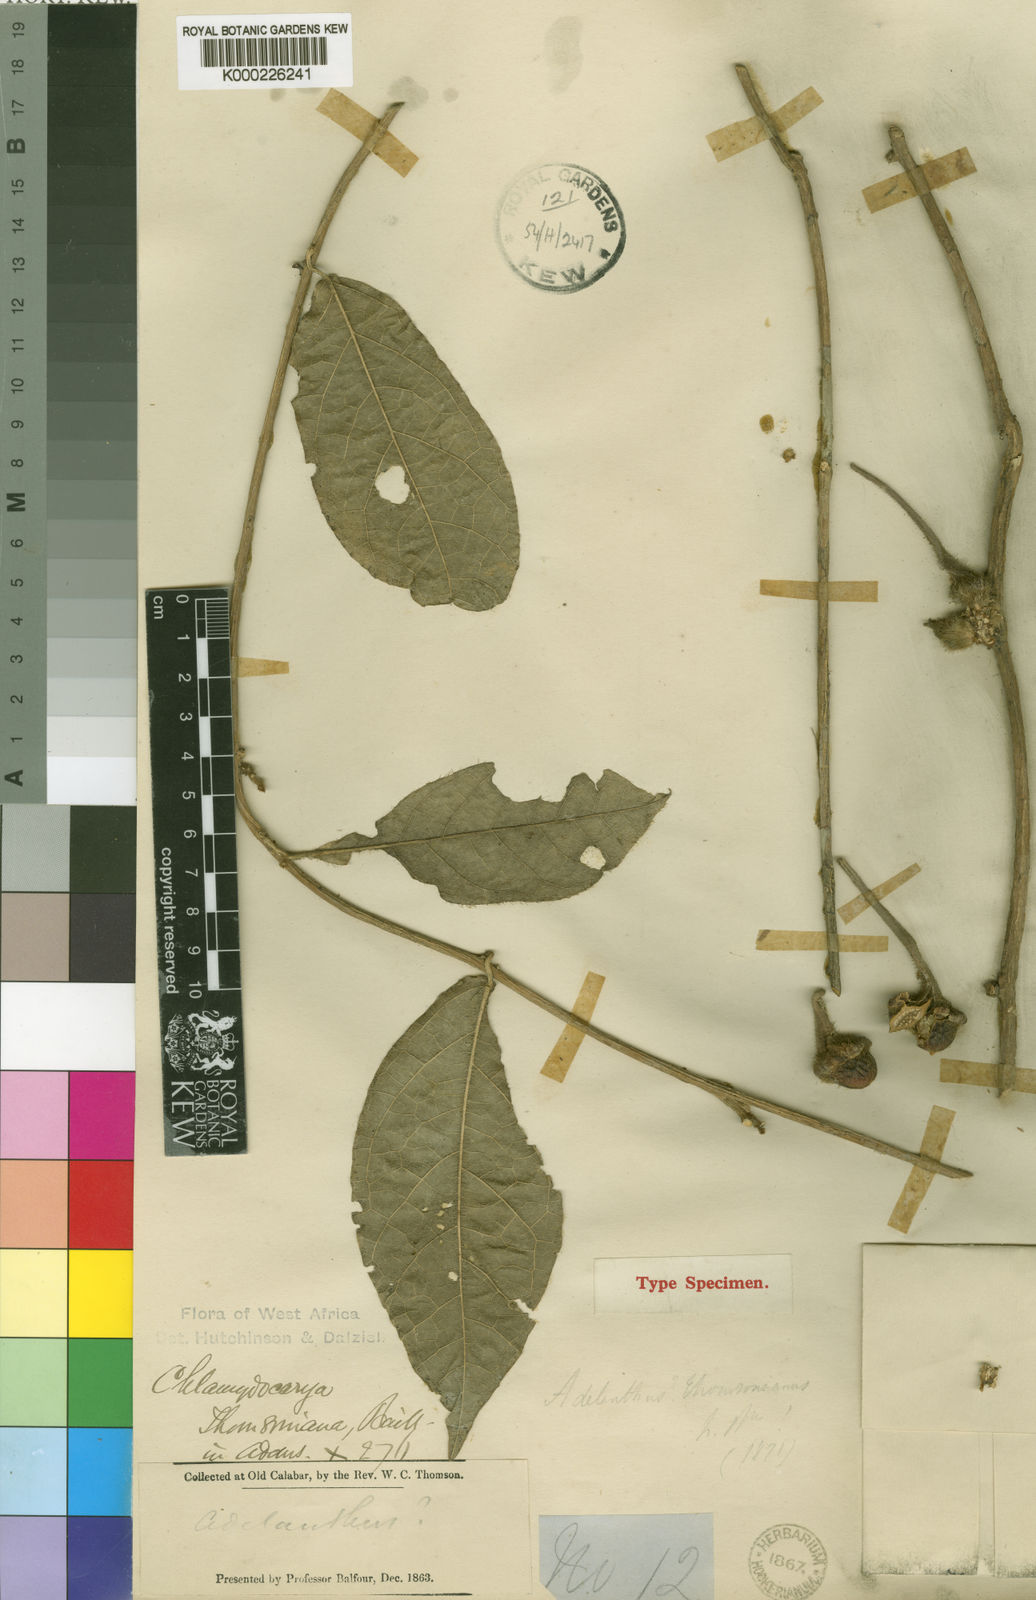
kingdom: Plantae
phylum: Tracheophyta
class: Magnoliopsida
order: Icacinales
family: Icacinaceae
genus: Pyrenacantha
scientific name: Pyrenacantha thomsoniana
